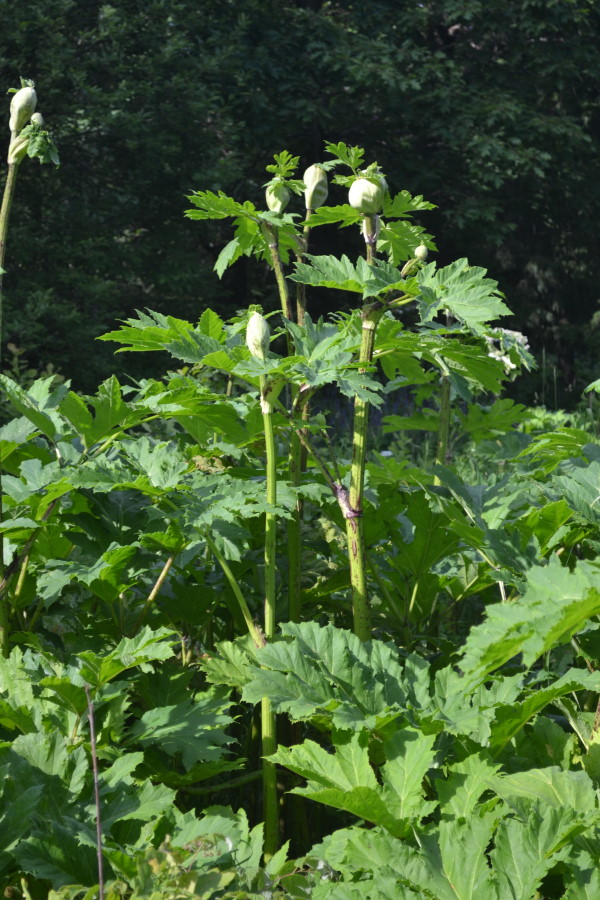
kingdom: Plantae
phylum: Tracheophyta
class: Magnoliopsida
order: Apiales
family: Apiaceae
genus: Heracleum
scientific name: Heracleum sosnowskyi
